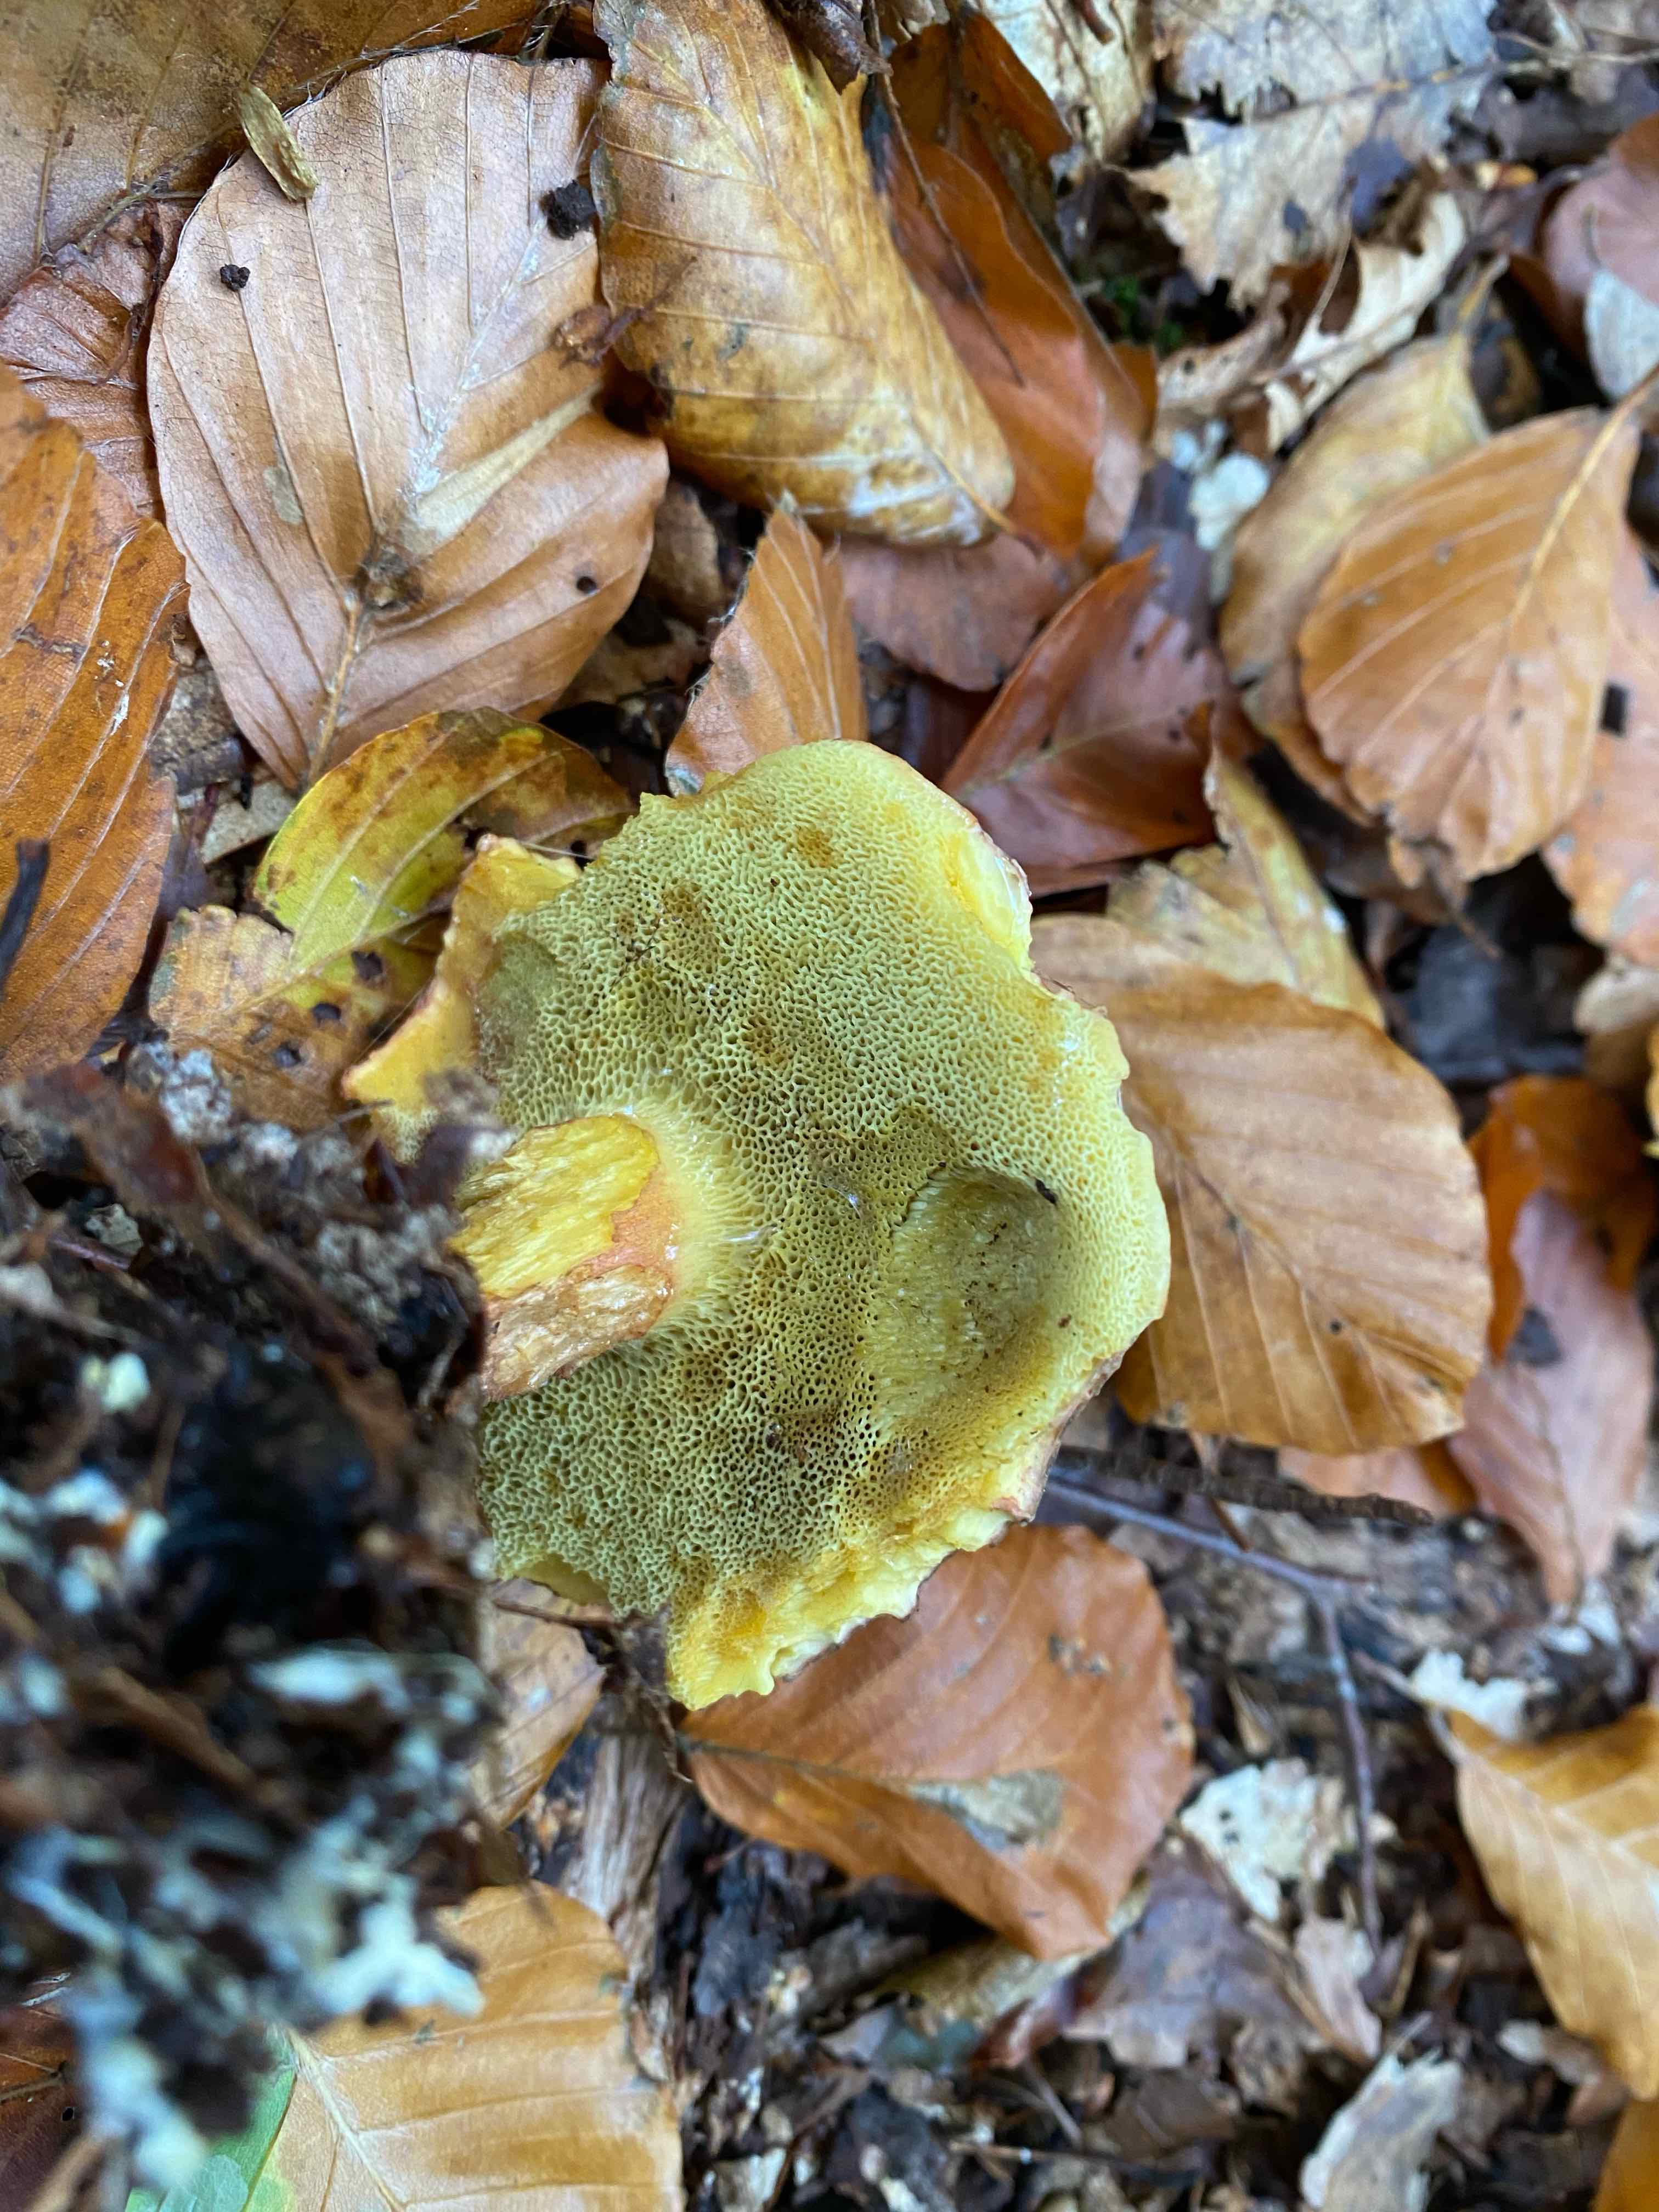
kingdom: Fungi
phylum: Basidiomycota
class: Agaricomycetes
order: Boletales
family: Boletaceae
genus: Xerocomellus
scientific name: Xerocomellus pruinatus
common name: dugget rørhat
